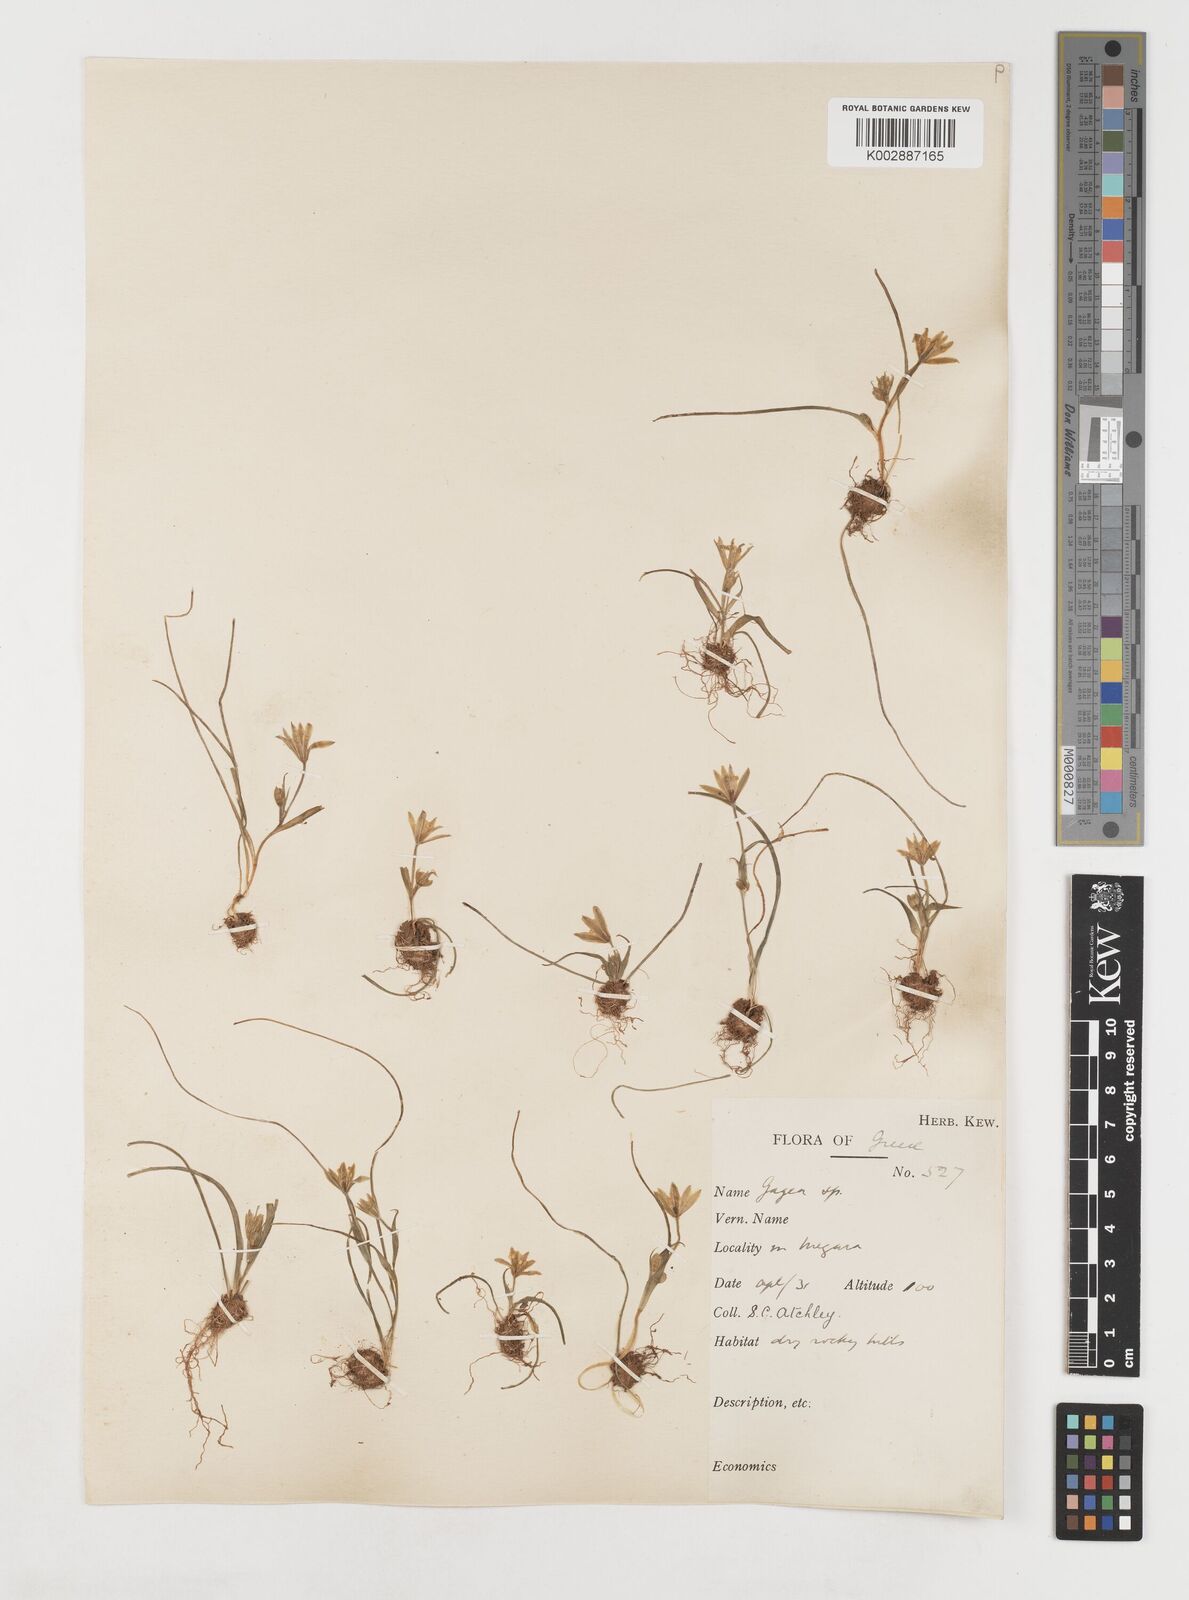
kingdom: Plantae
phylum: Tracheophyta
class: Liliopsida
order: Liliales
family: Liliaceae
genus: Gagea
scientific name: Gagea peduncularis
